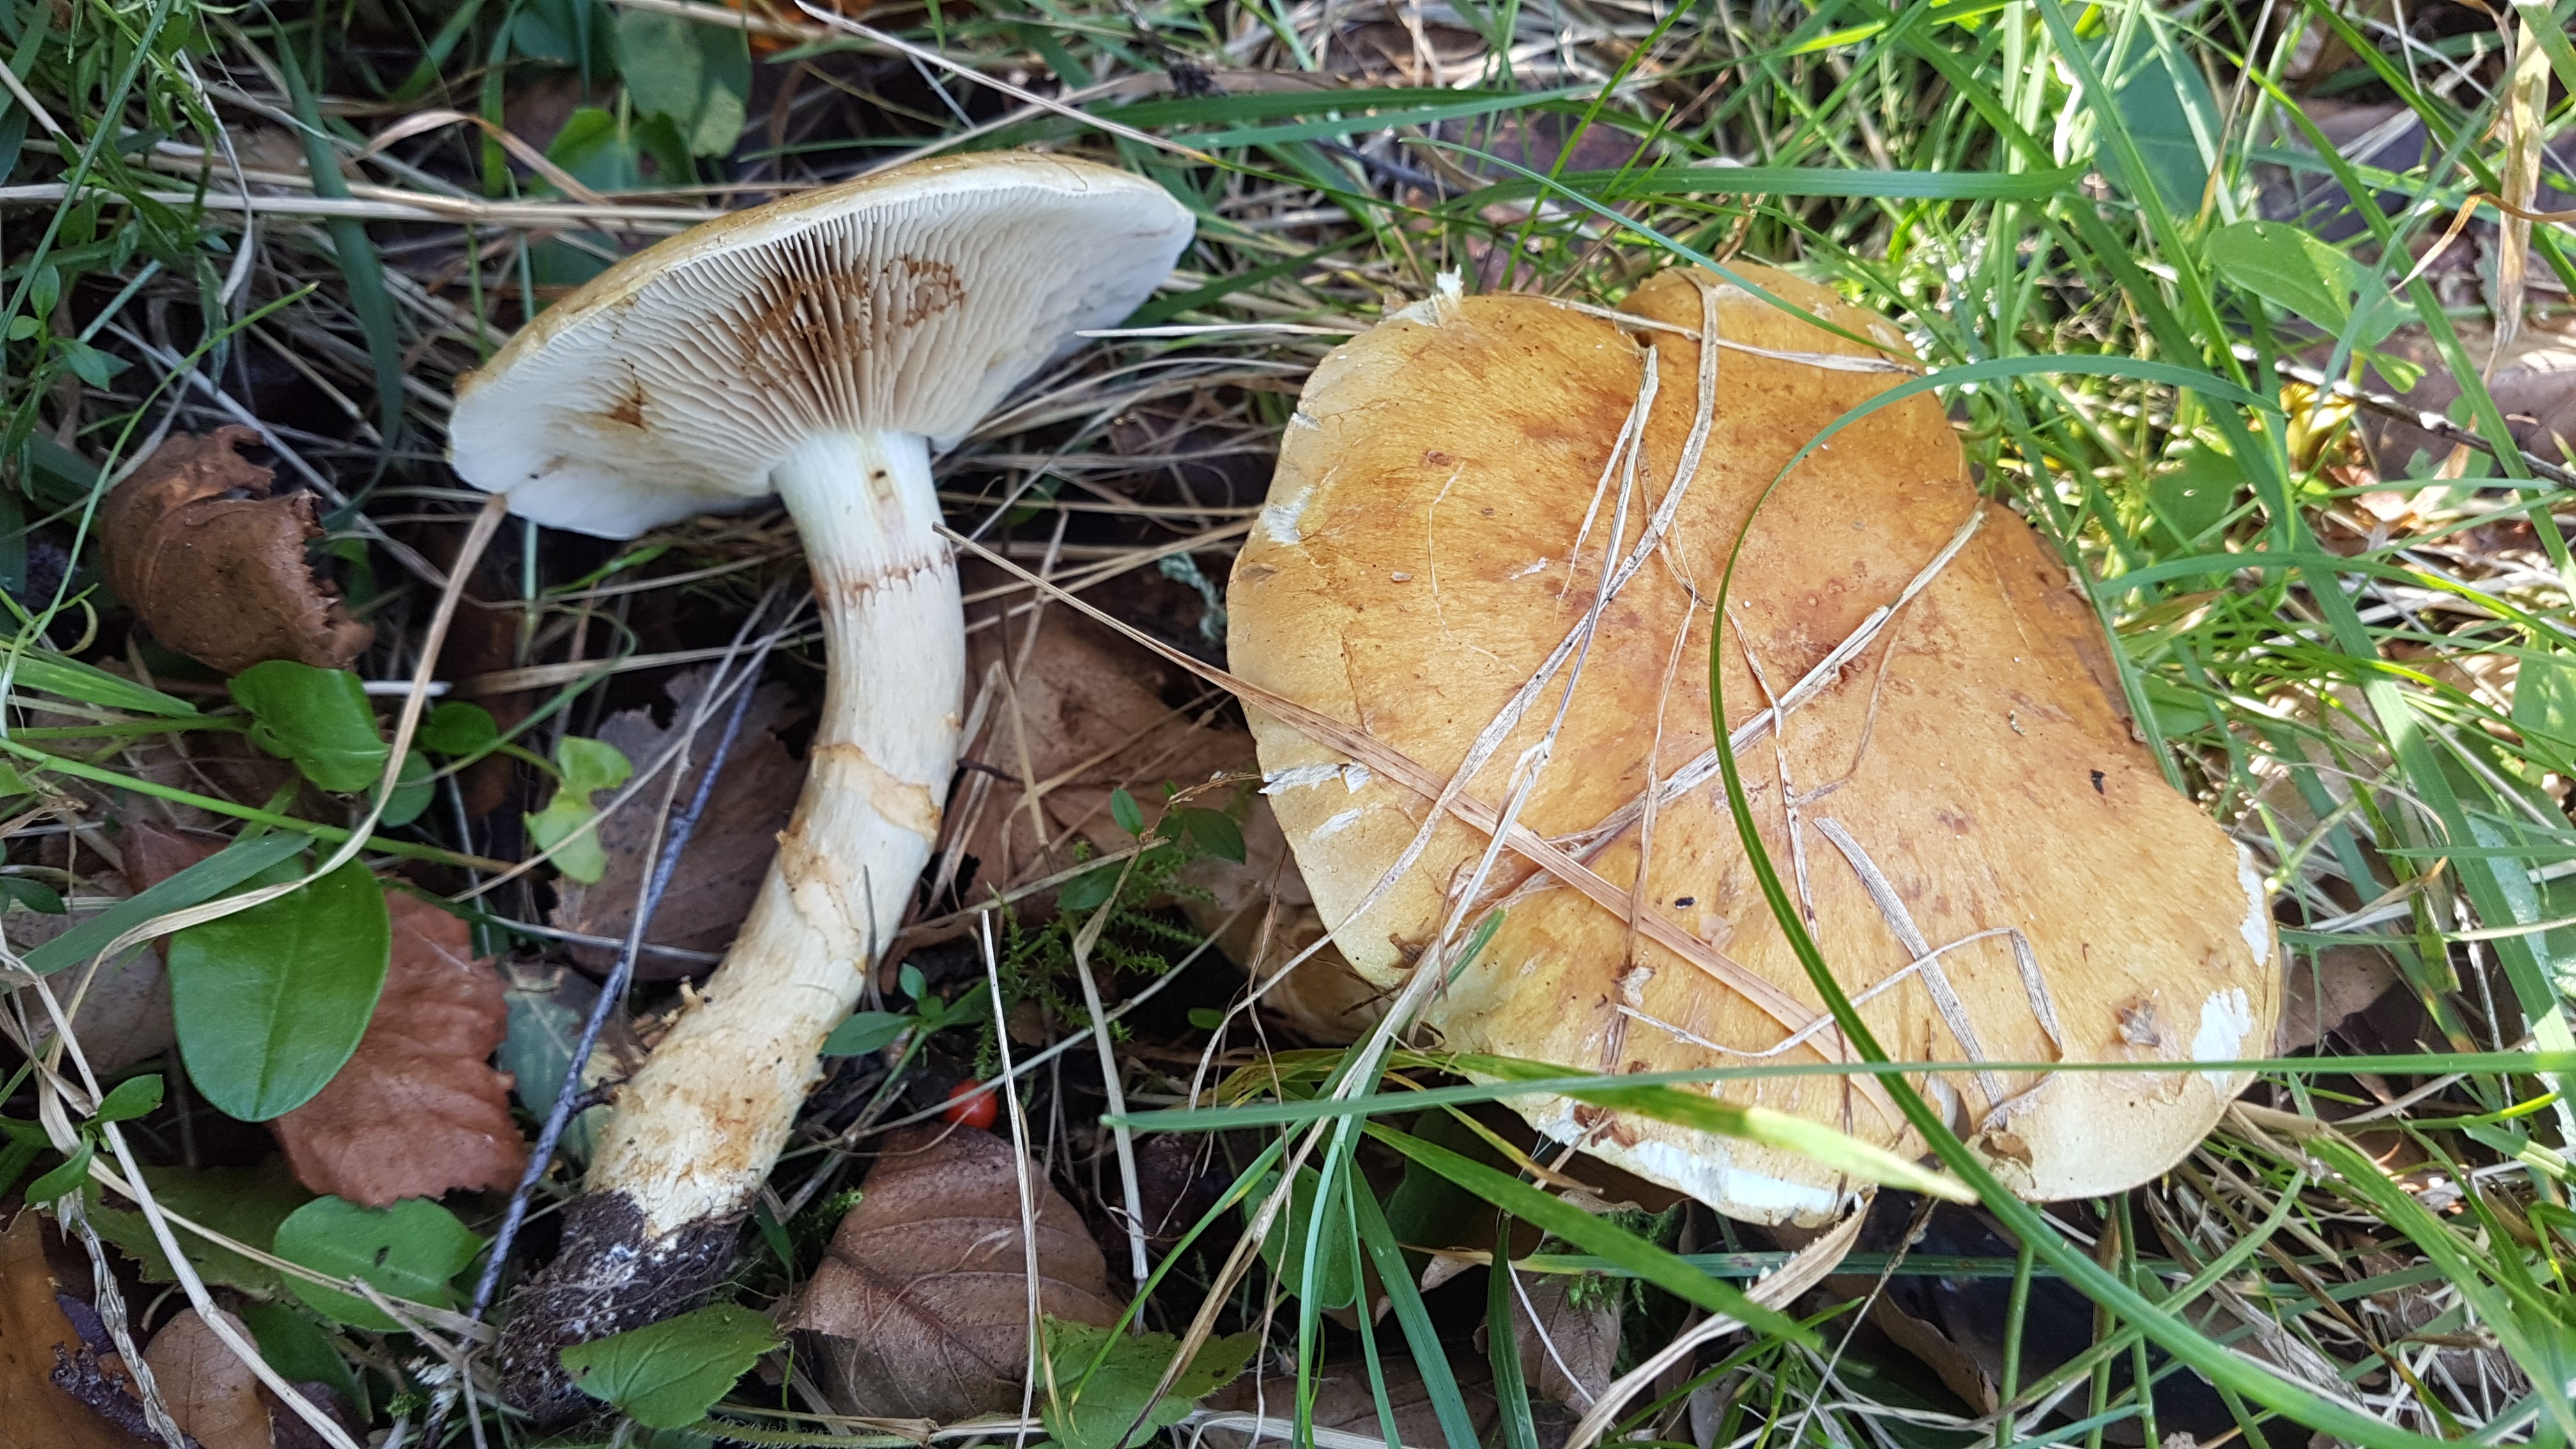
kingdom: Fungi
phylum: Basidiomycota
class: Agaricomycetes
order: Agaricales
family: Cortinariaceae
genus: Phlegmacium
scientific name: Phlegmacium triumphans
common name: gulbæltet slørhat
